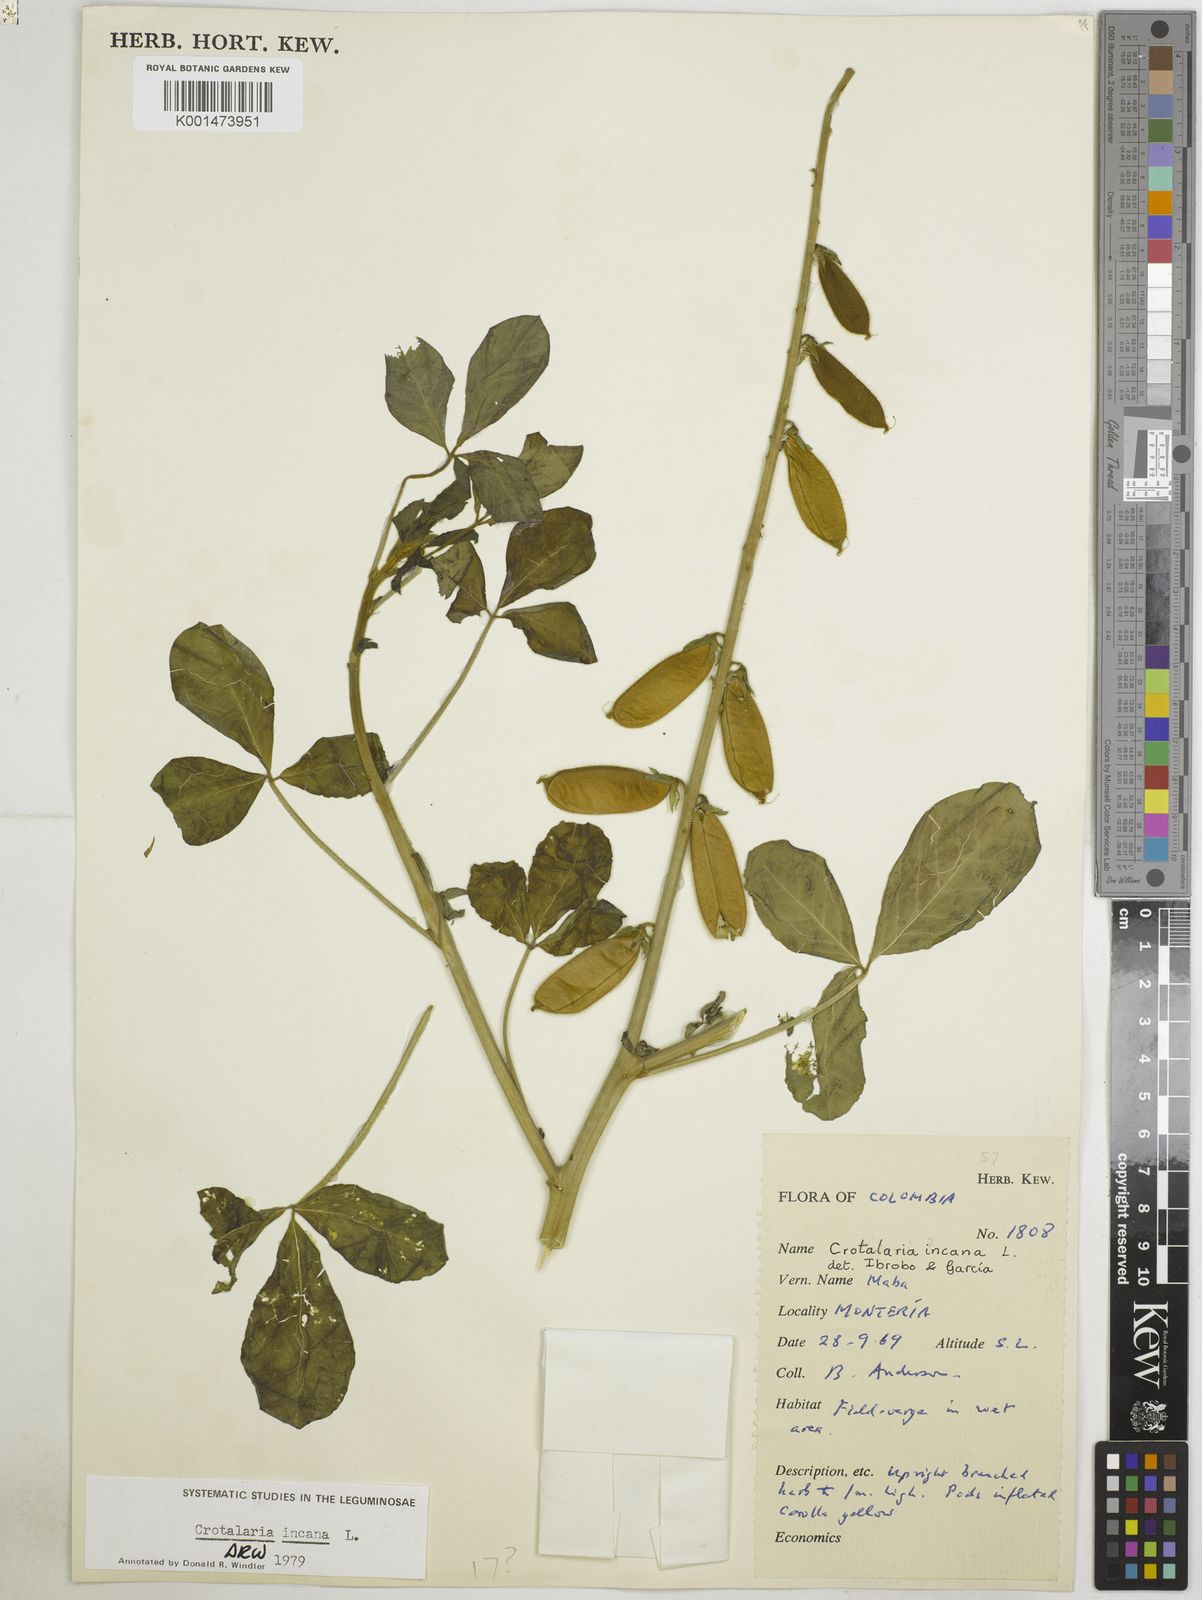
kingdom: Plantae
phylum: Tracheophyta
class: Magnoliopsida
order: Fabales
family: Fabaceae
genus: Crotalaria
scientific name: Crotalaria incana
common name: Shakeshake
